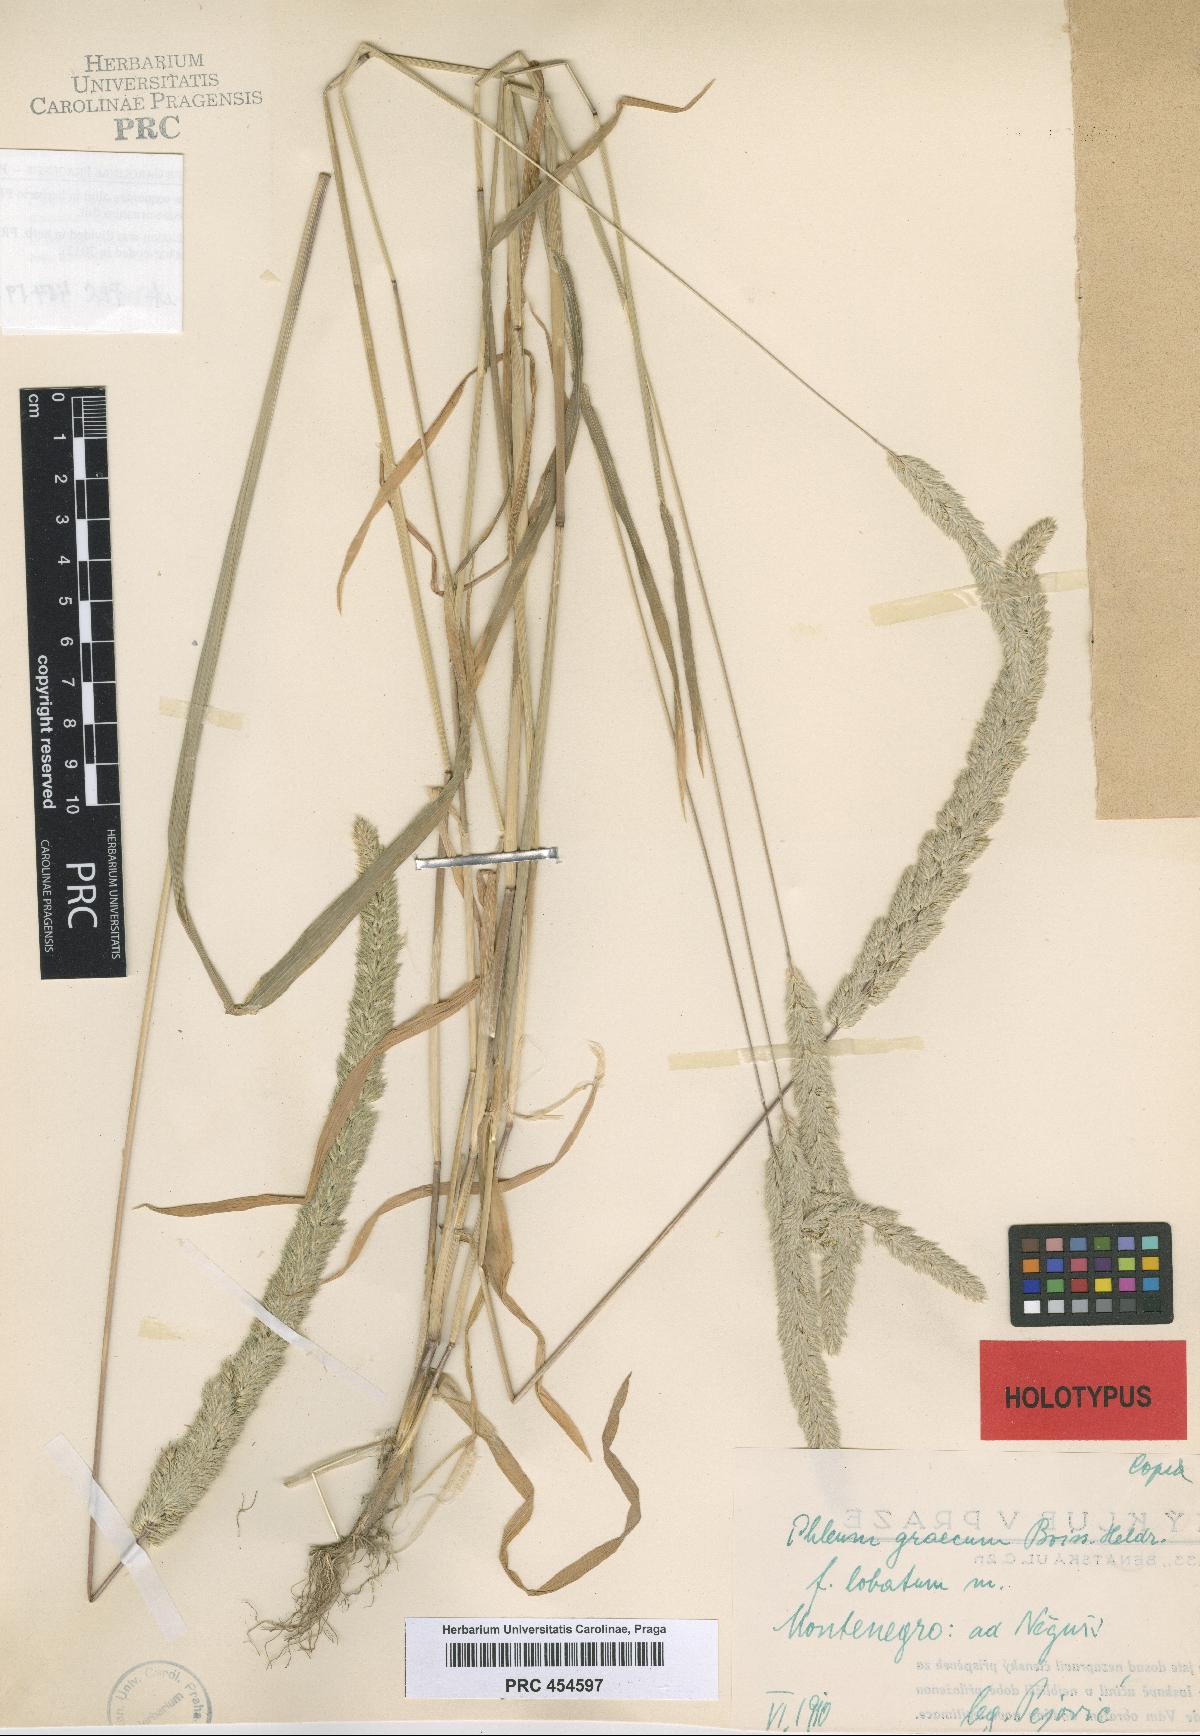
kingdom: Plantae
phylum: Tracheophyta
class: Liliopsida
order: Poales
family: Poaceae
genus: Phleum
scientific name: Phleum
